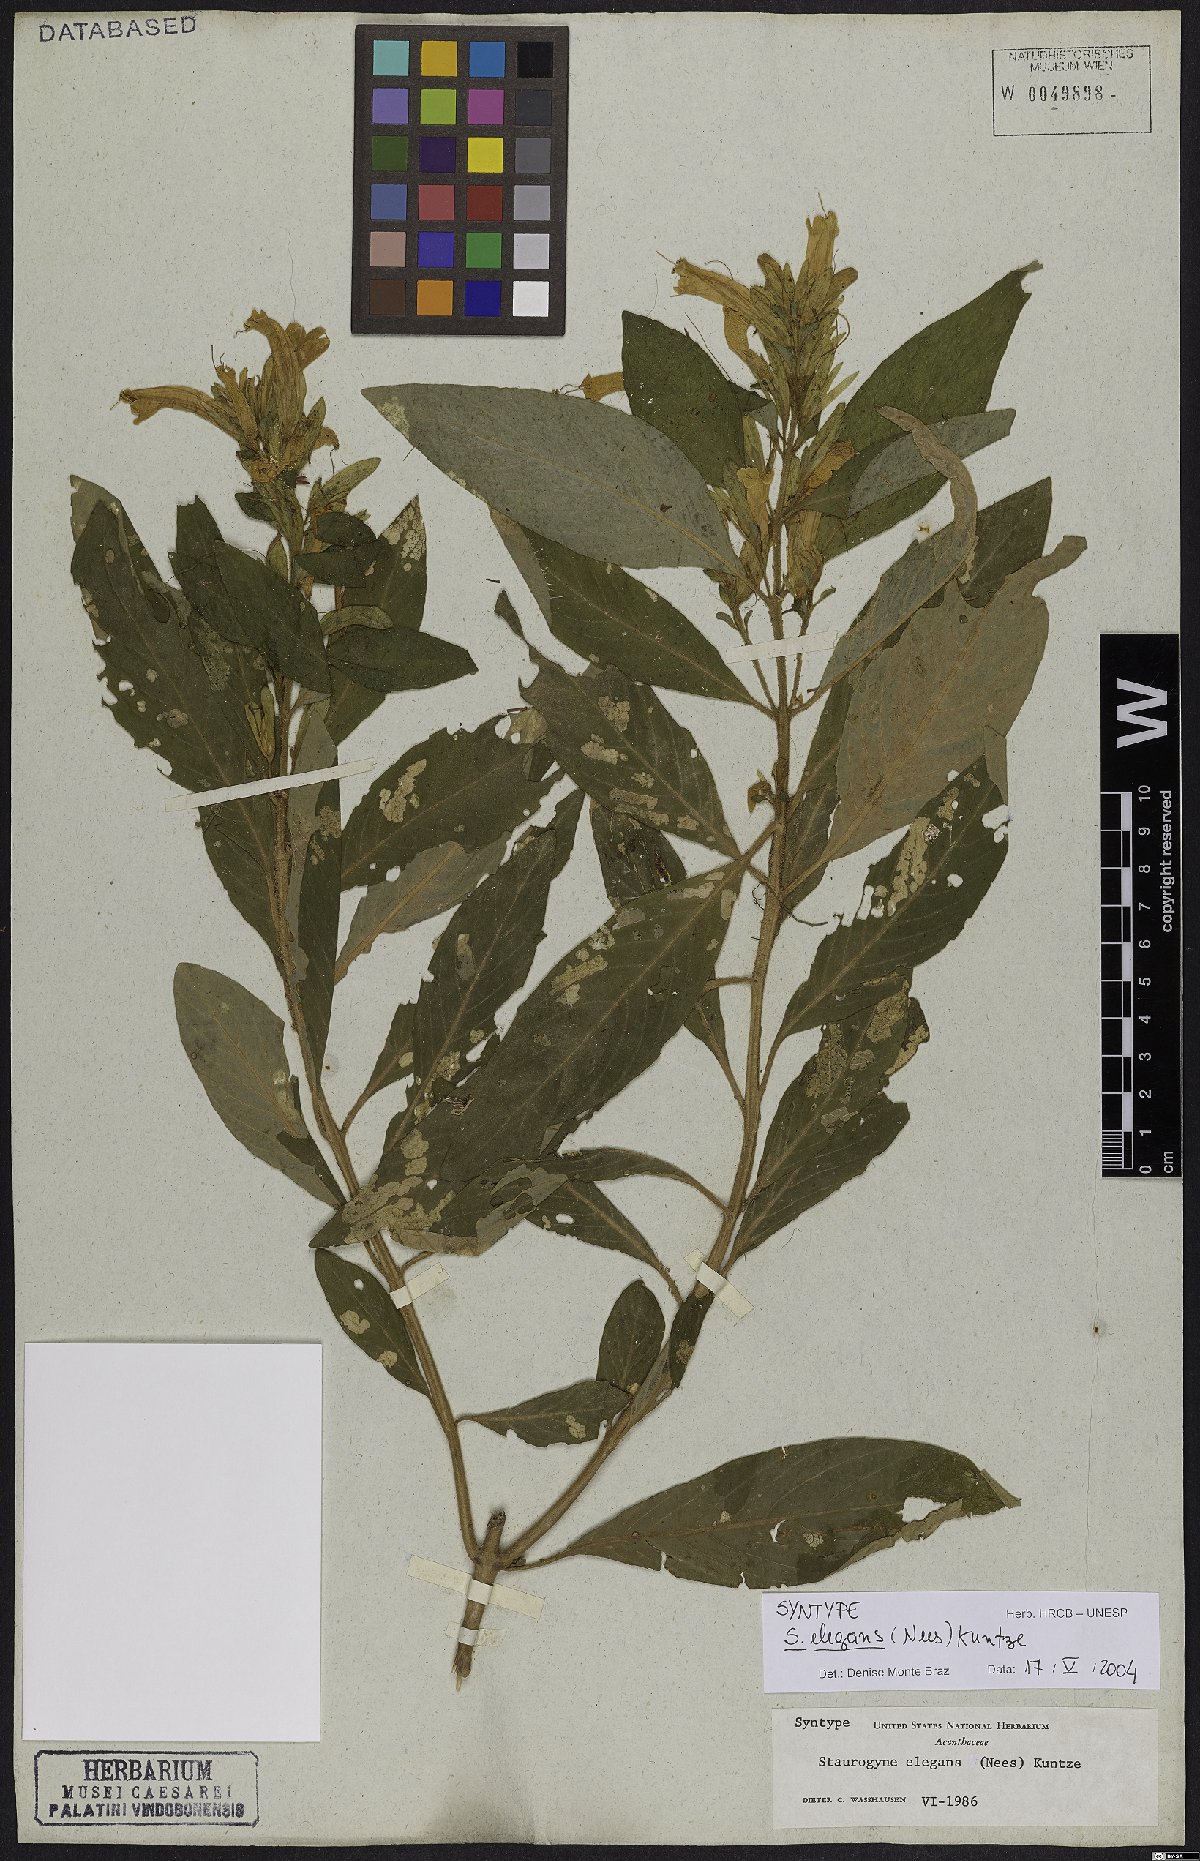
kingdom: Plantae
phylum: Tracheophyta
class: Magnoliopsida
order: Lamiales
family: Acanthaceae
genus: Staurogyne
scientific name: Staurogyne elegans
